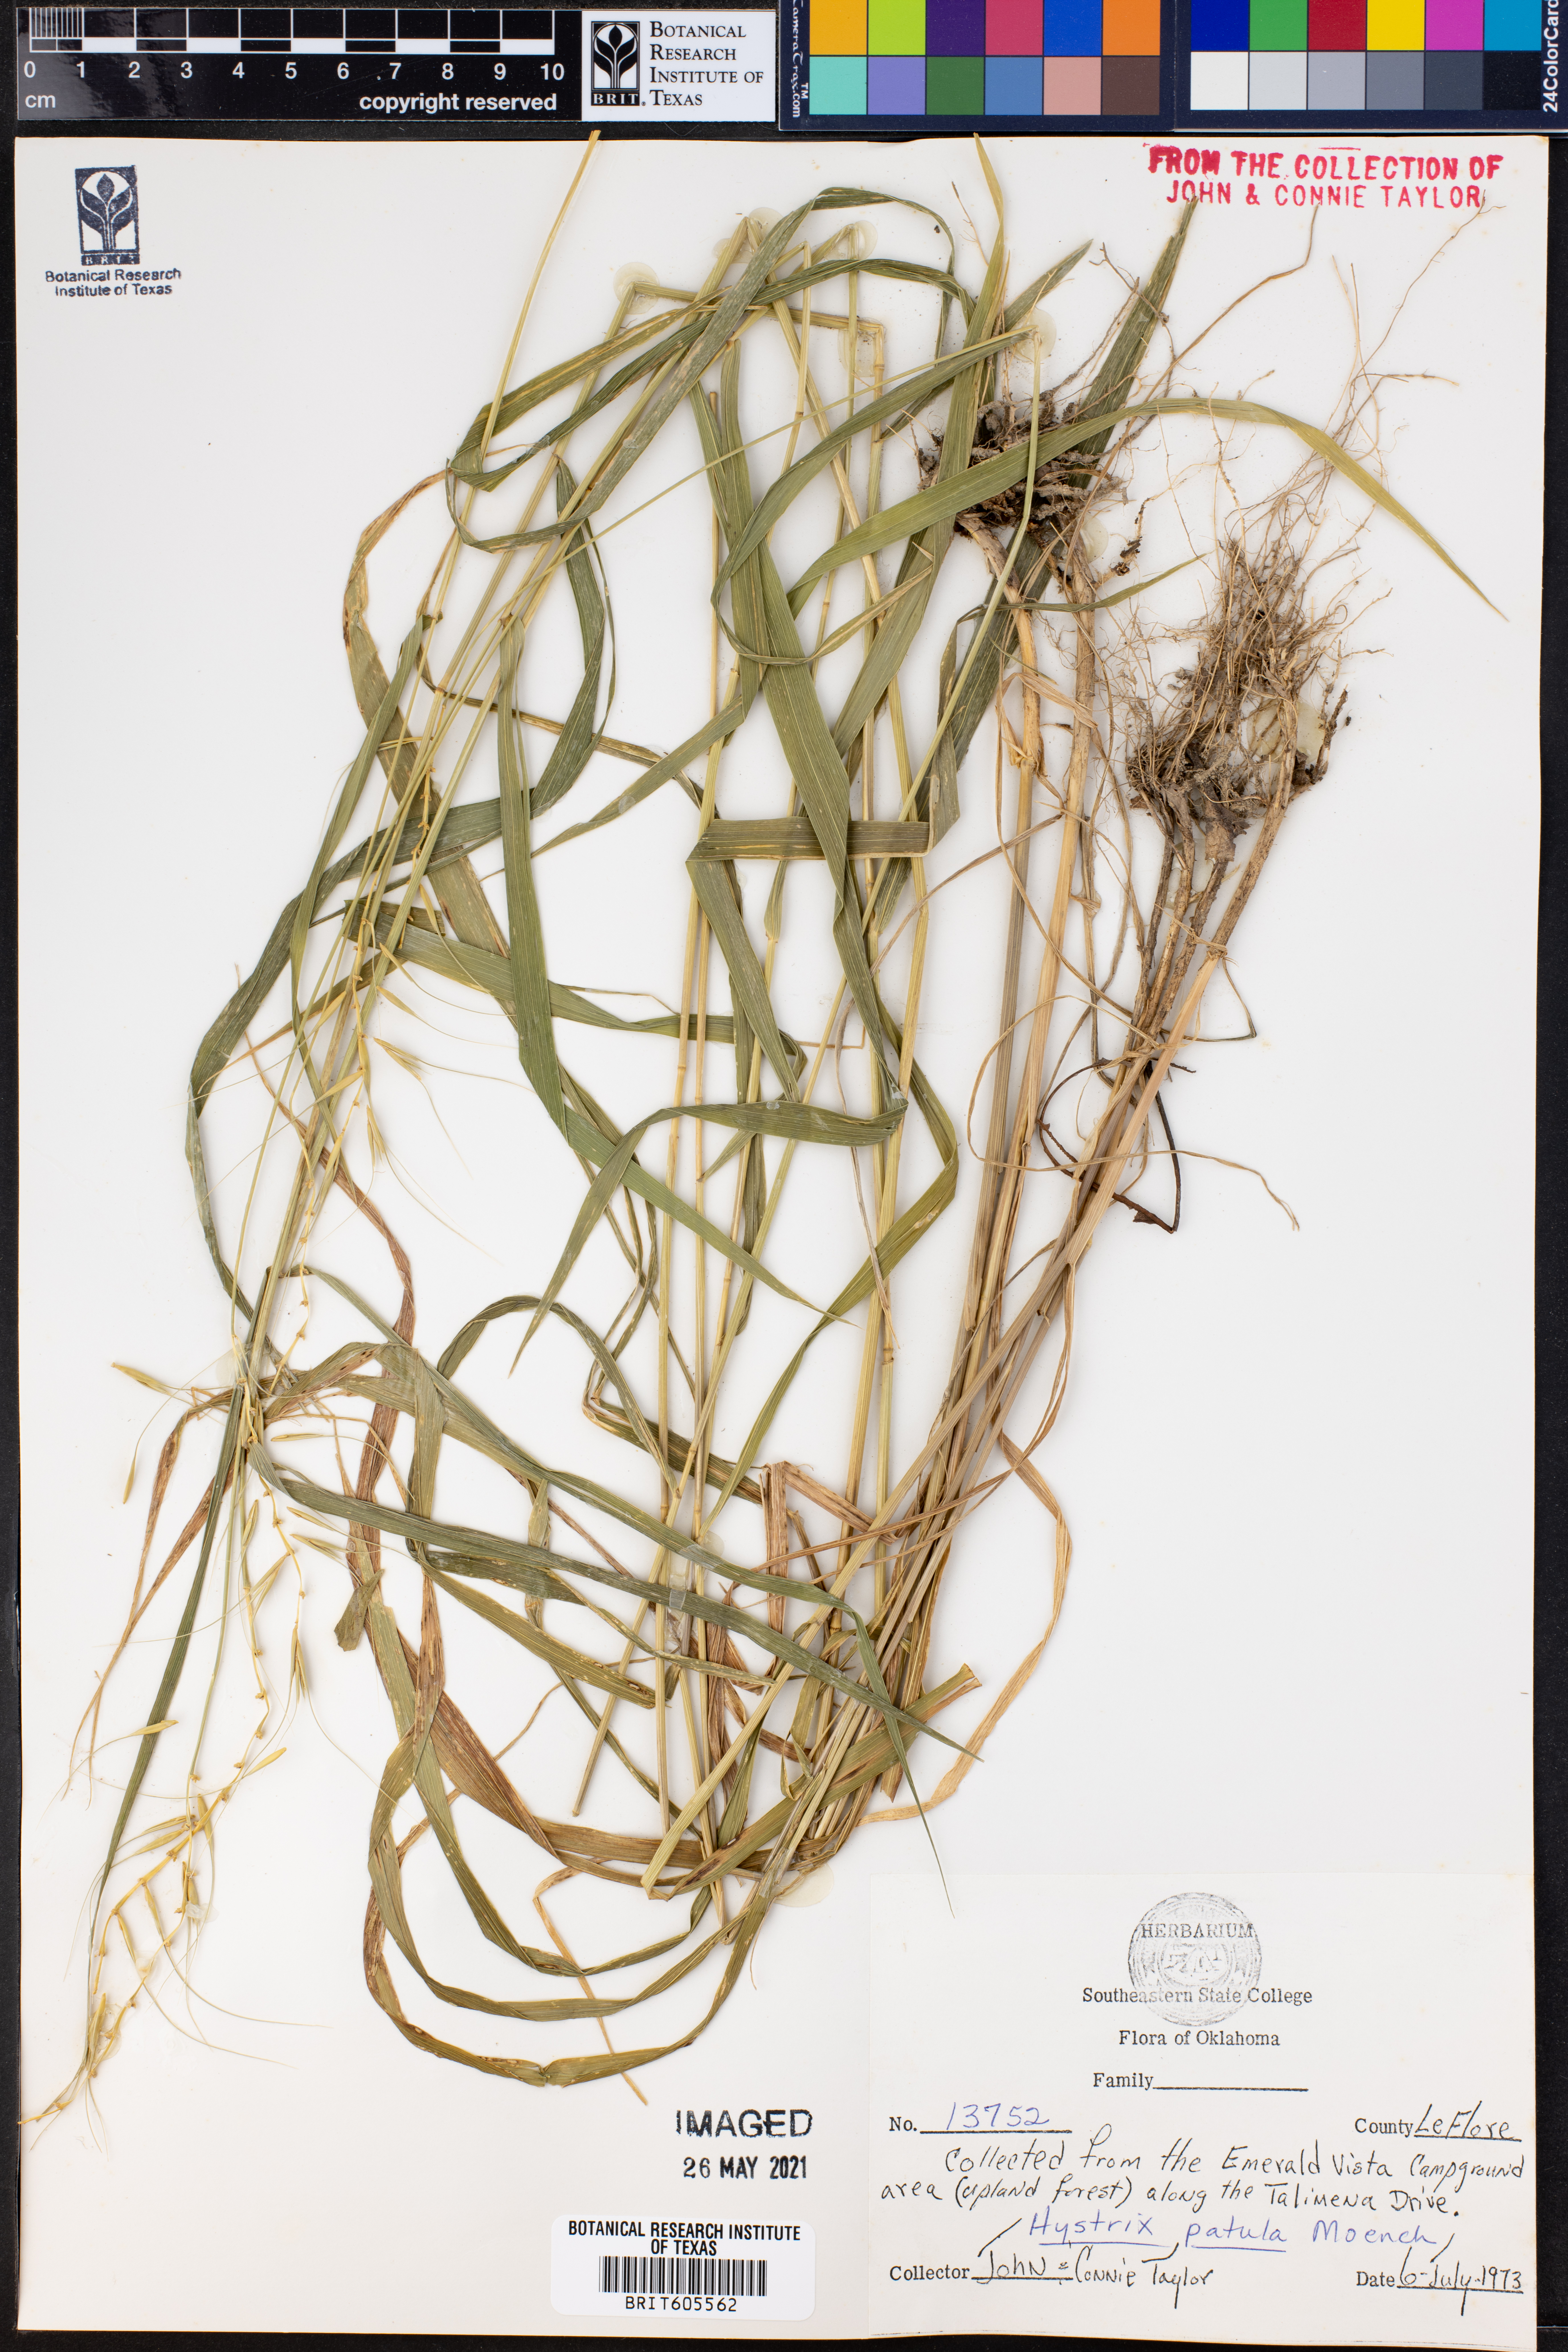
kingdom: Plantae
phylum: Tracheophyta
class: Liliopsida
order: Poales
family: Poaceae
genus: Elymus
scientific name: Elymus hystrix
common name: Bottlebrush grass
